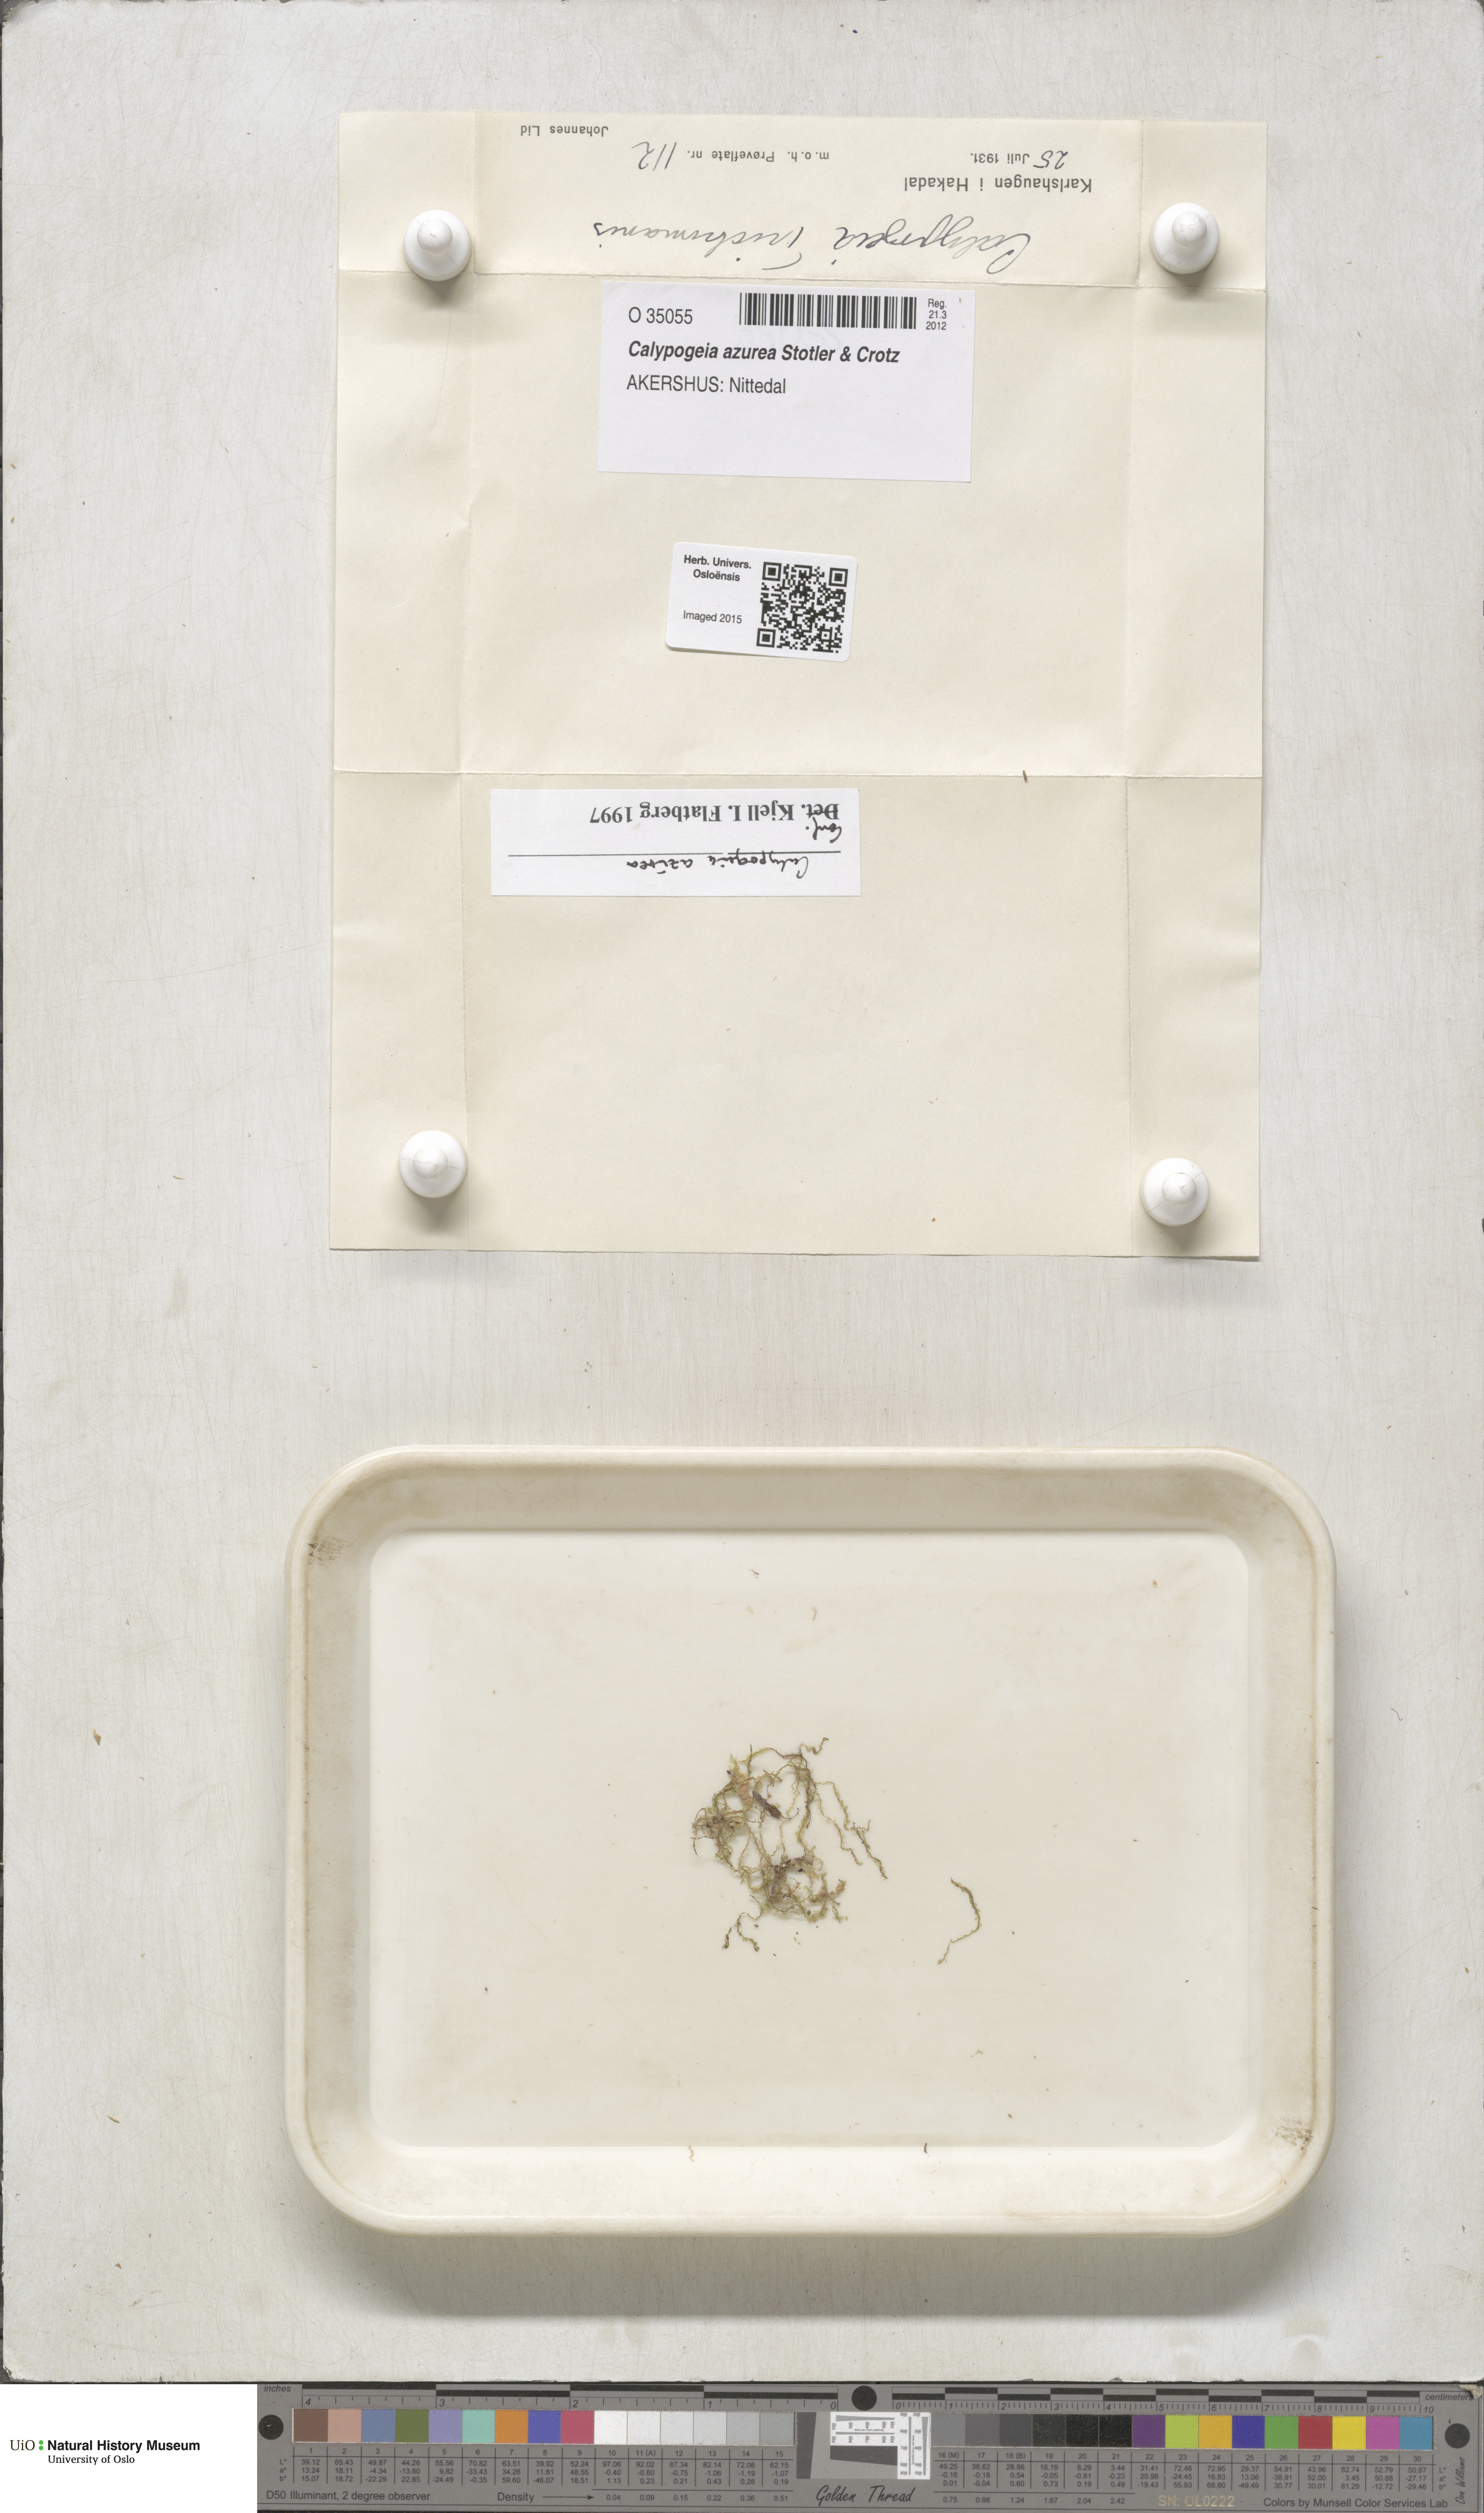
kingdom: Plantae
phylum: Marchantiophyta
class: Jungermanniopsida
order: Jungermanniales
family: Calypogeiaceae
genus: Calypogeia
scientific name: Calypogeia azurea
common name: Blue pouchwort
